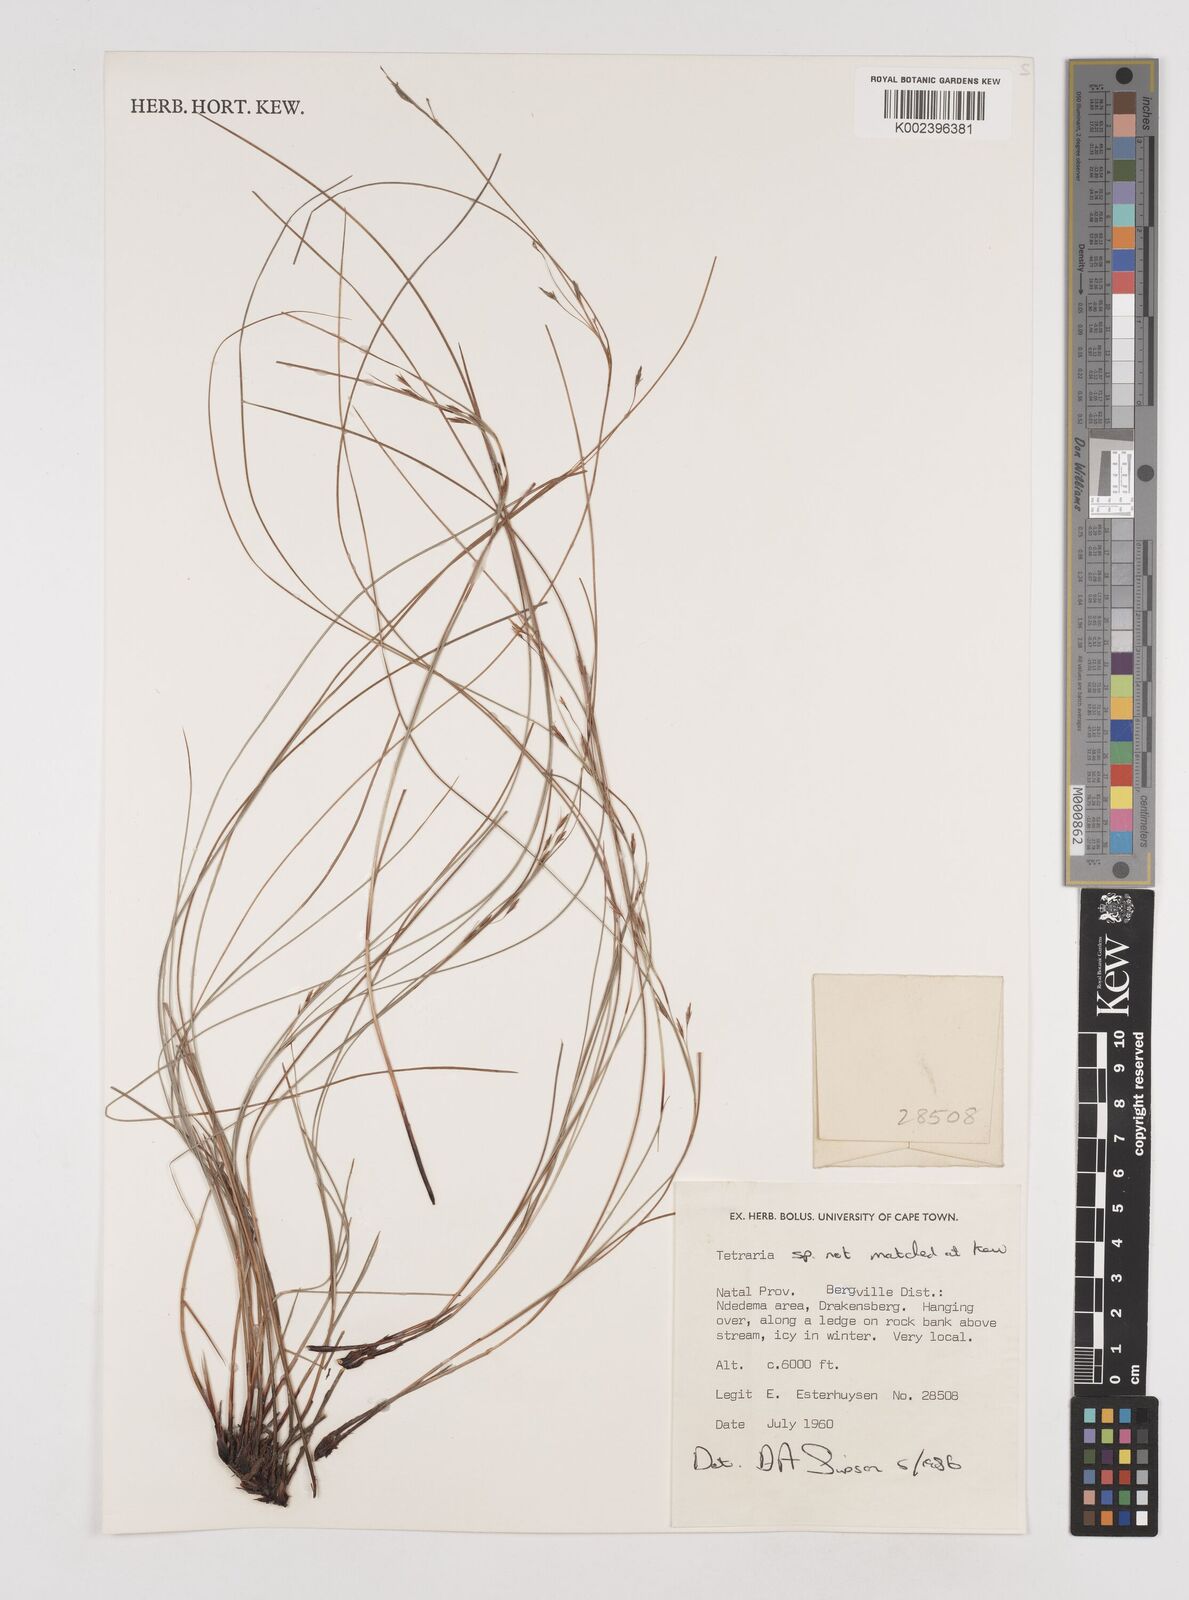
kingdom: Plantae
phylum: Tracheophyta
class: Liliopsida
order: Poales
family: Cyperaceae
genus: Tetraria
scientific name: Tetraria
